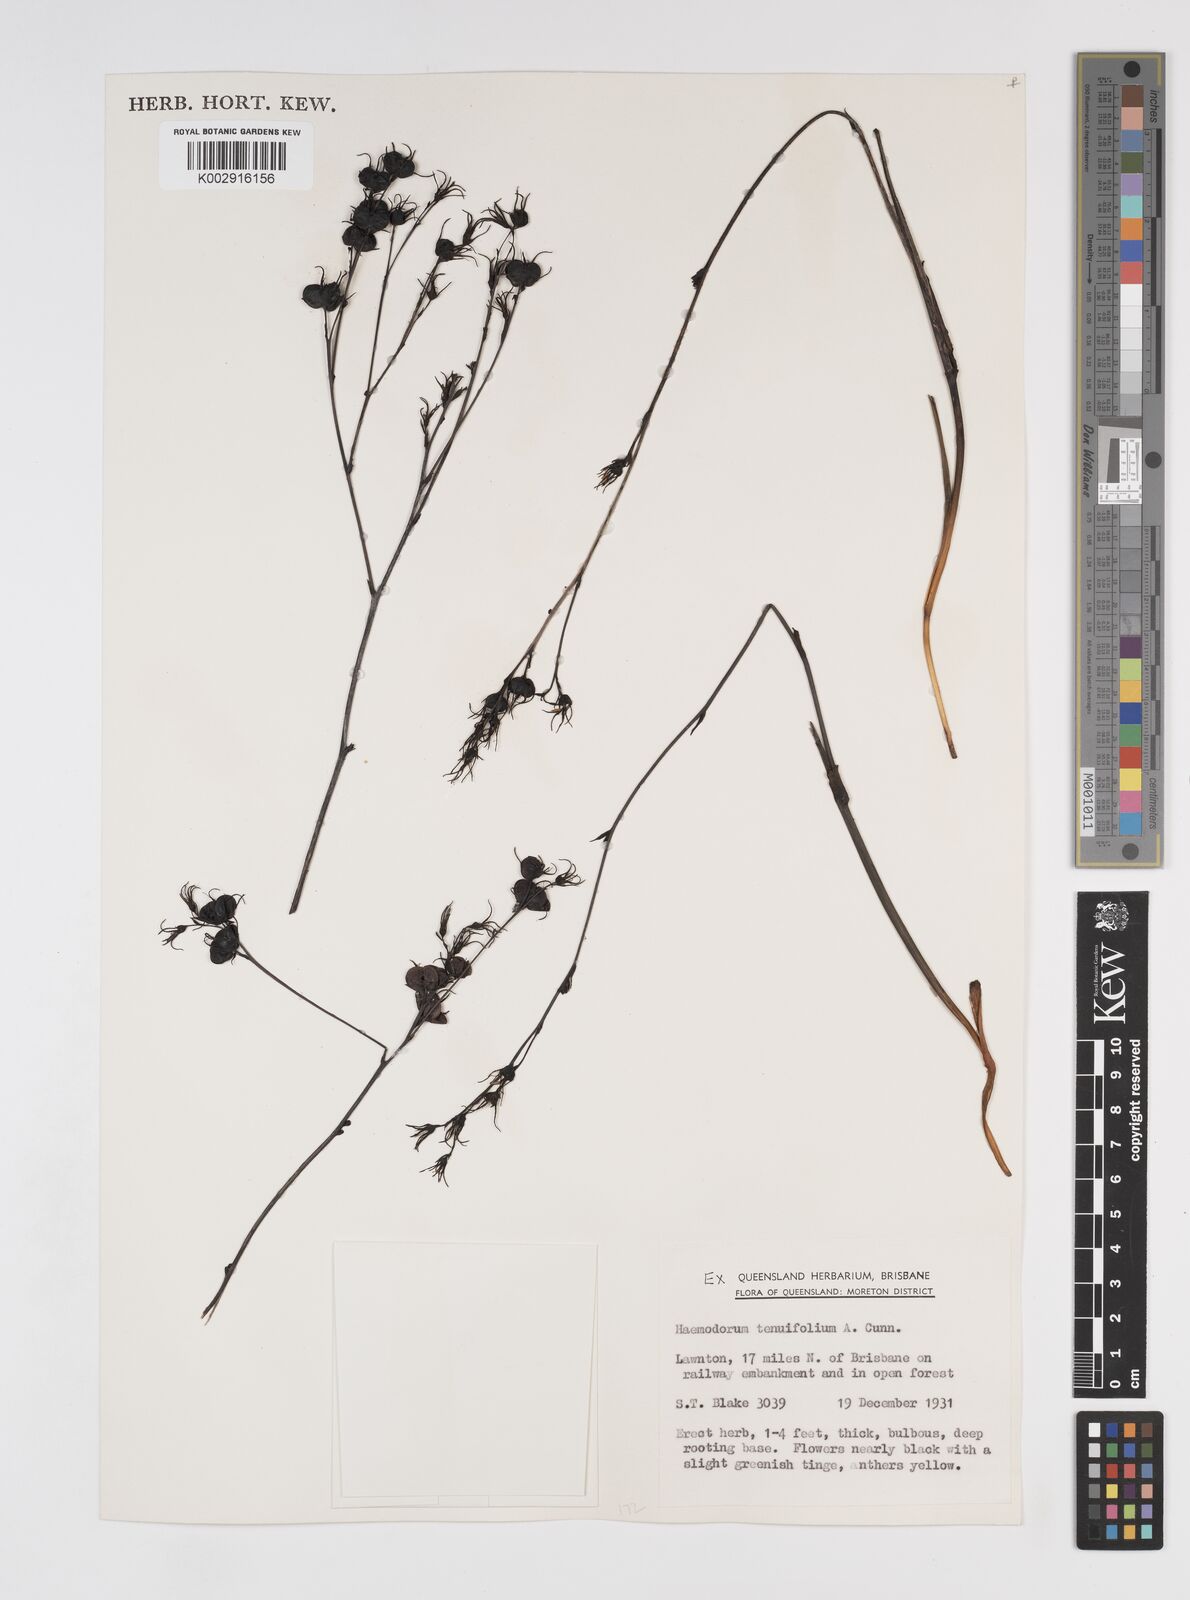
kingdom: Plantae
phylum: Tracheophyta
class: Liliopsida
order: Commelinales
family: Haemodoraceae
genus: Haemodorum
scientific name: Haemodorum tenuifolium
